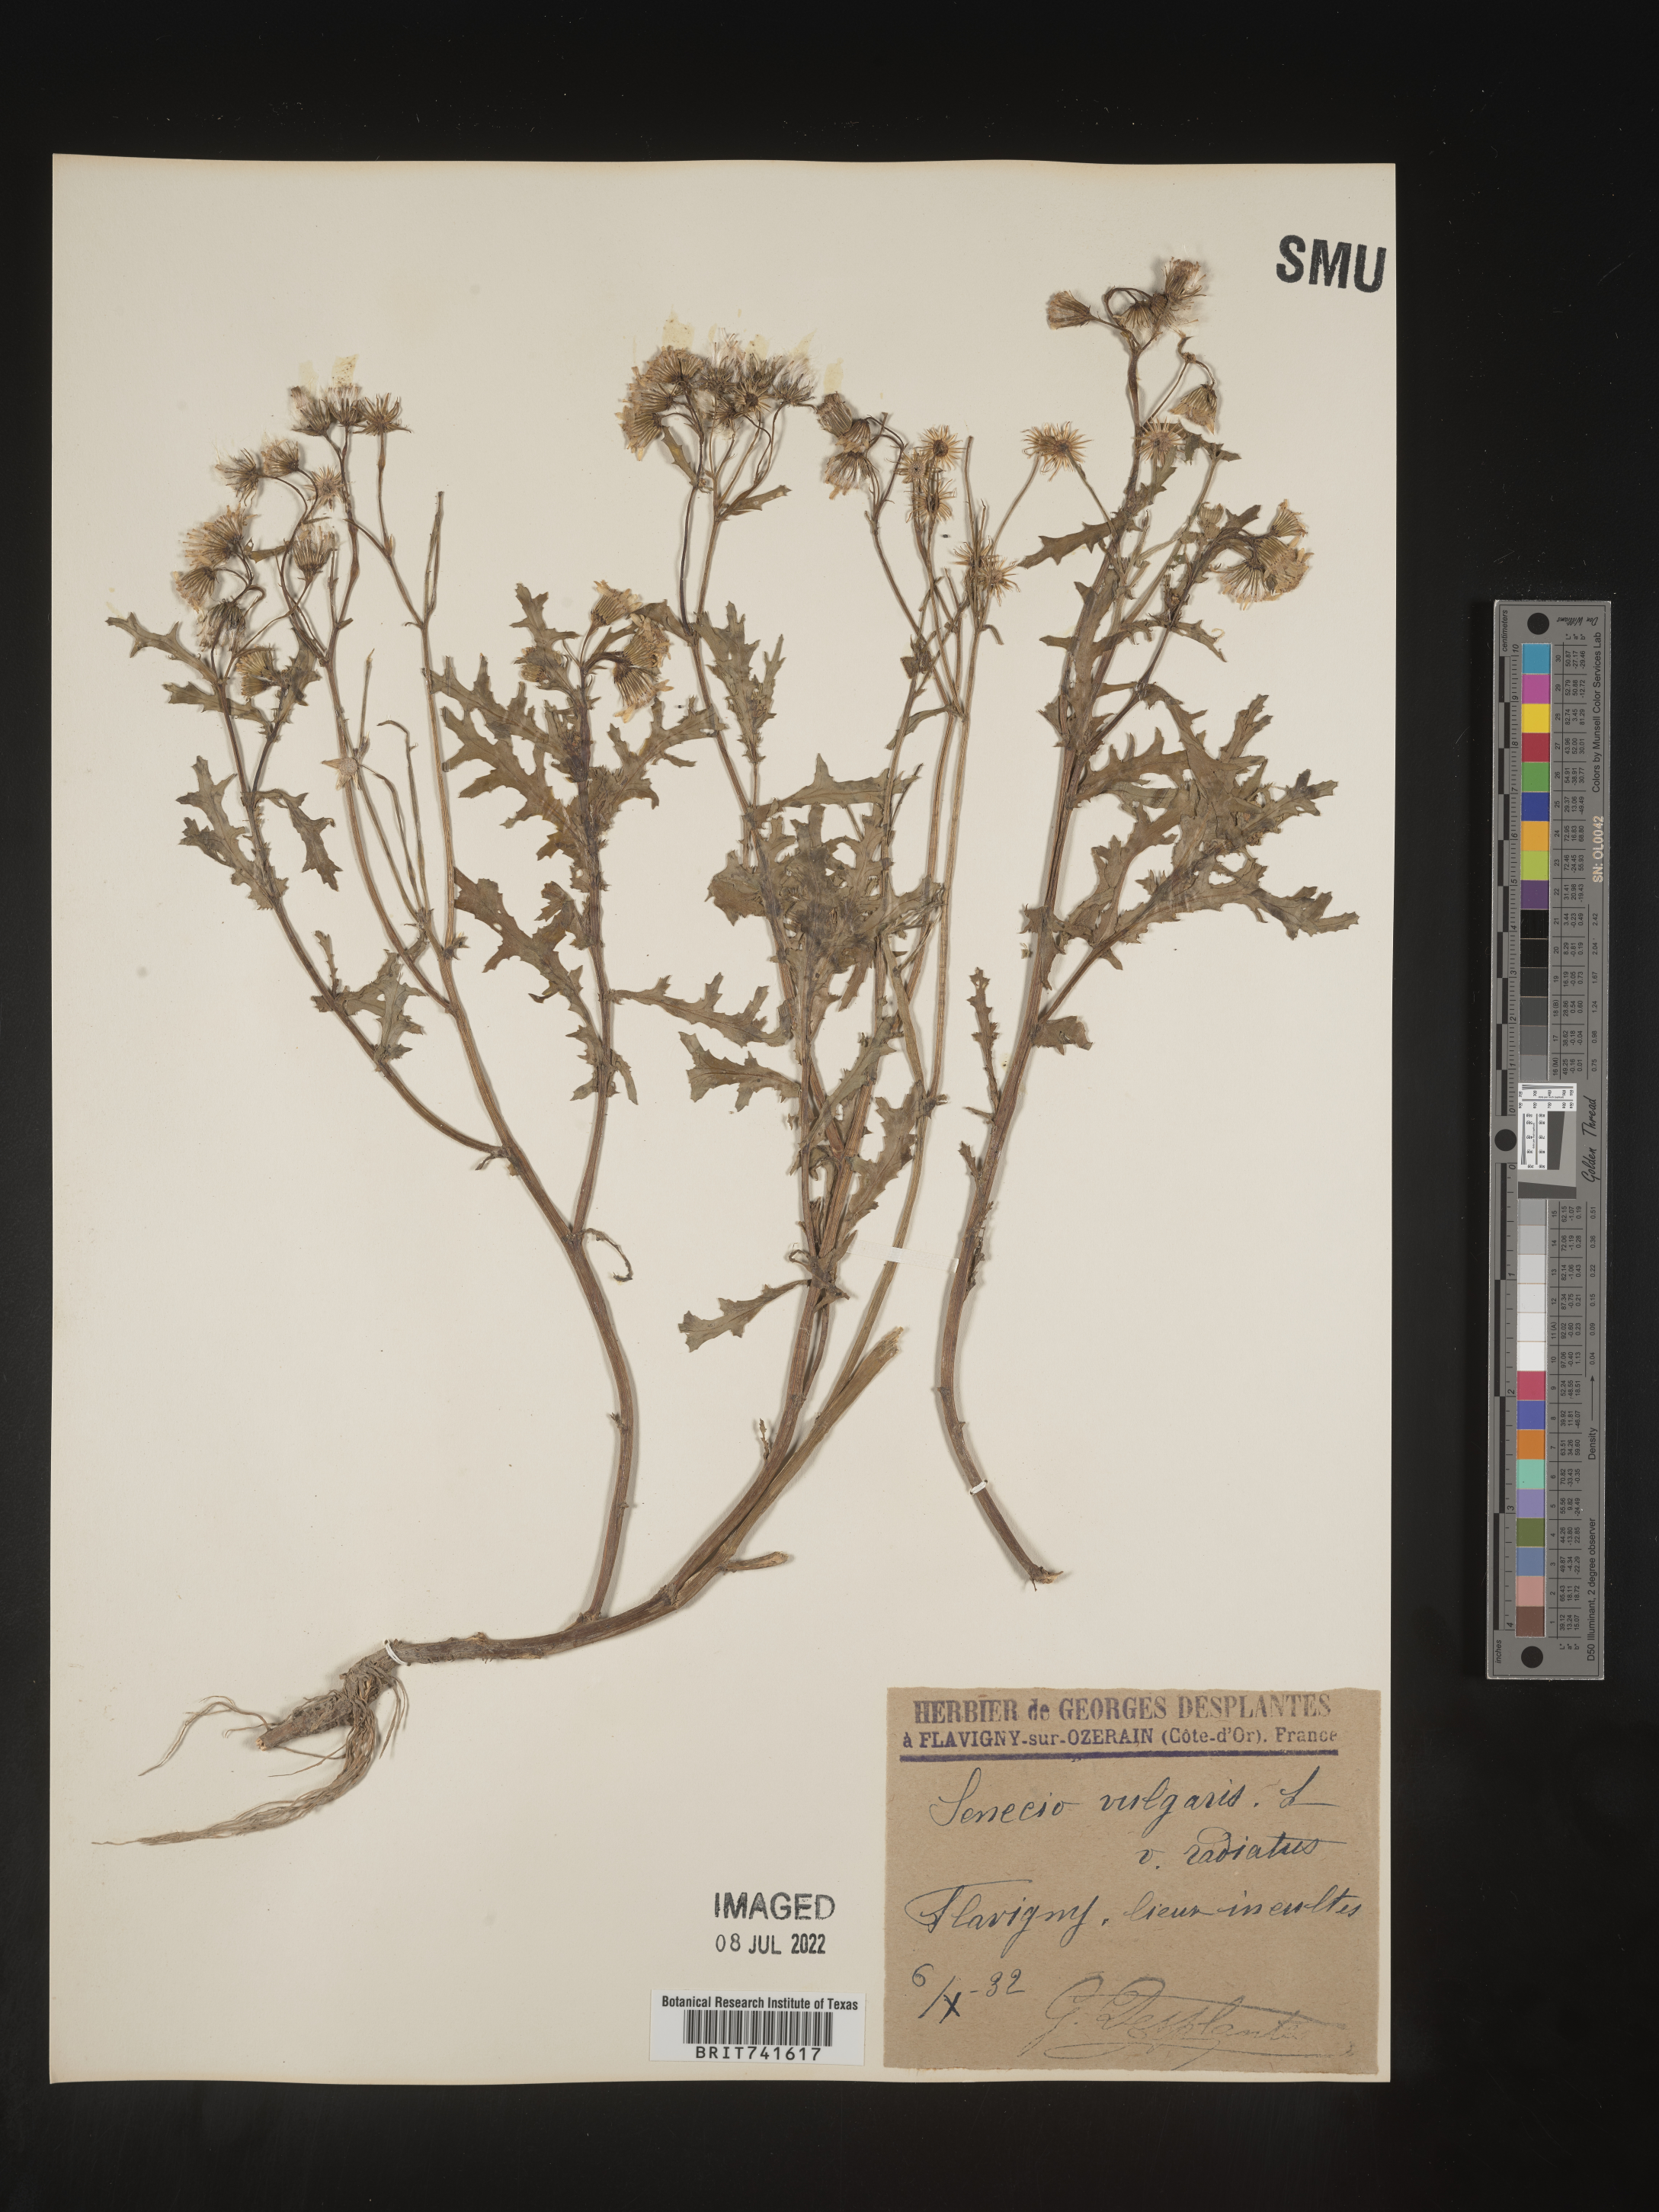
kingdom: Plantae
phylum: Tracheophyta
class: Magnoliopsida
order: Asterales
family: Asteraceae
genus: Senecio
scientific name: Senecio
